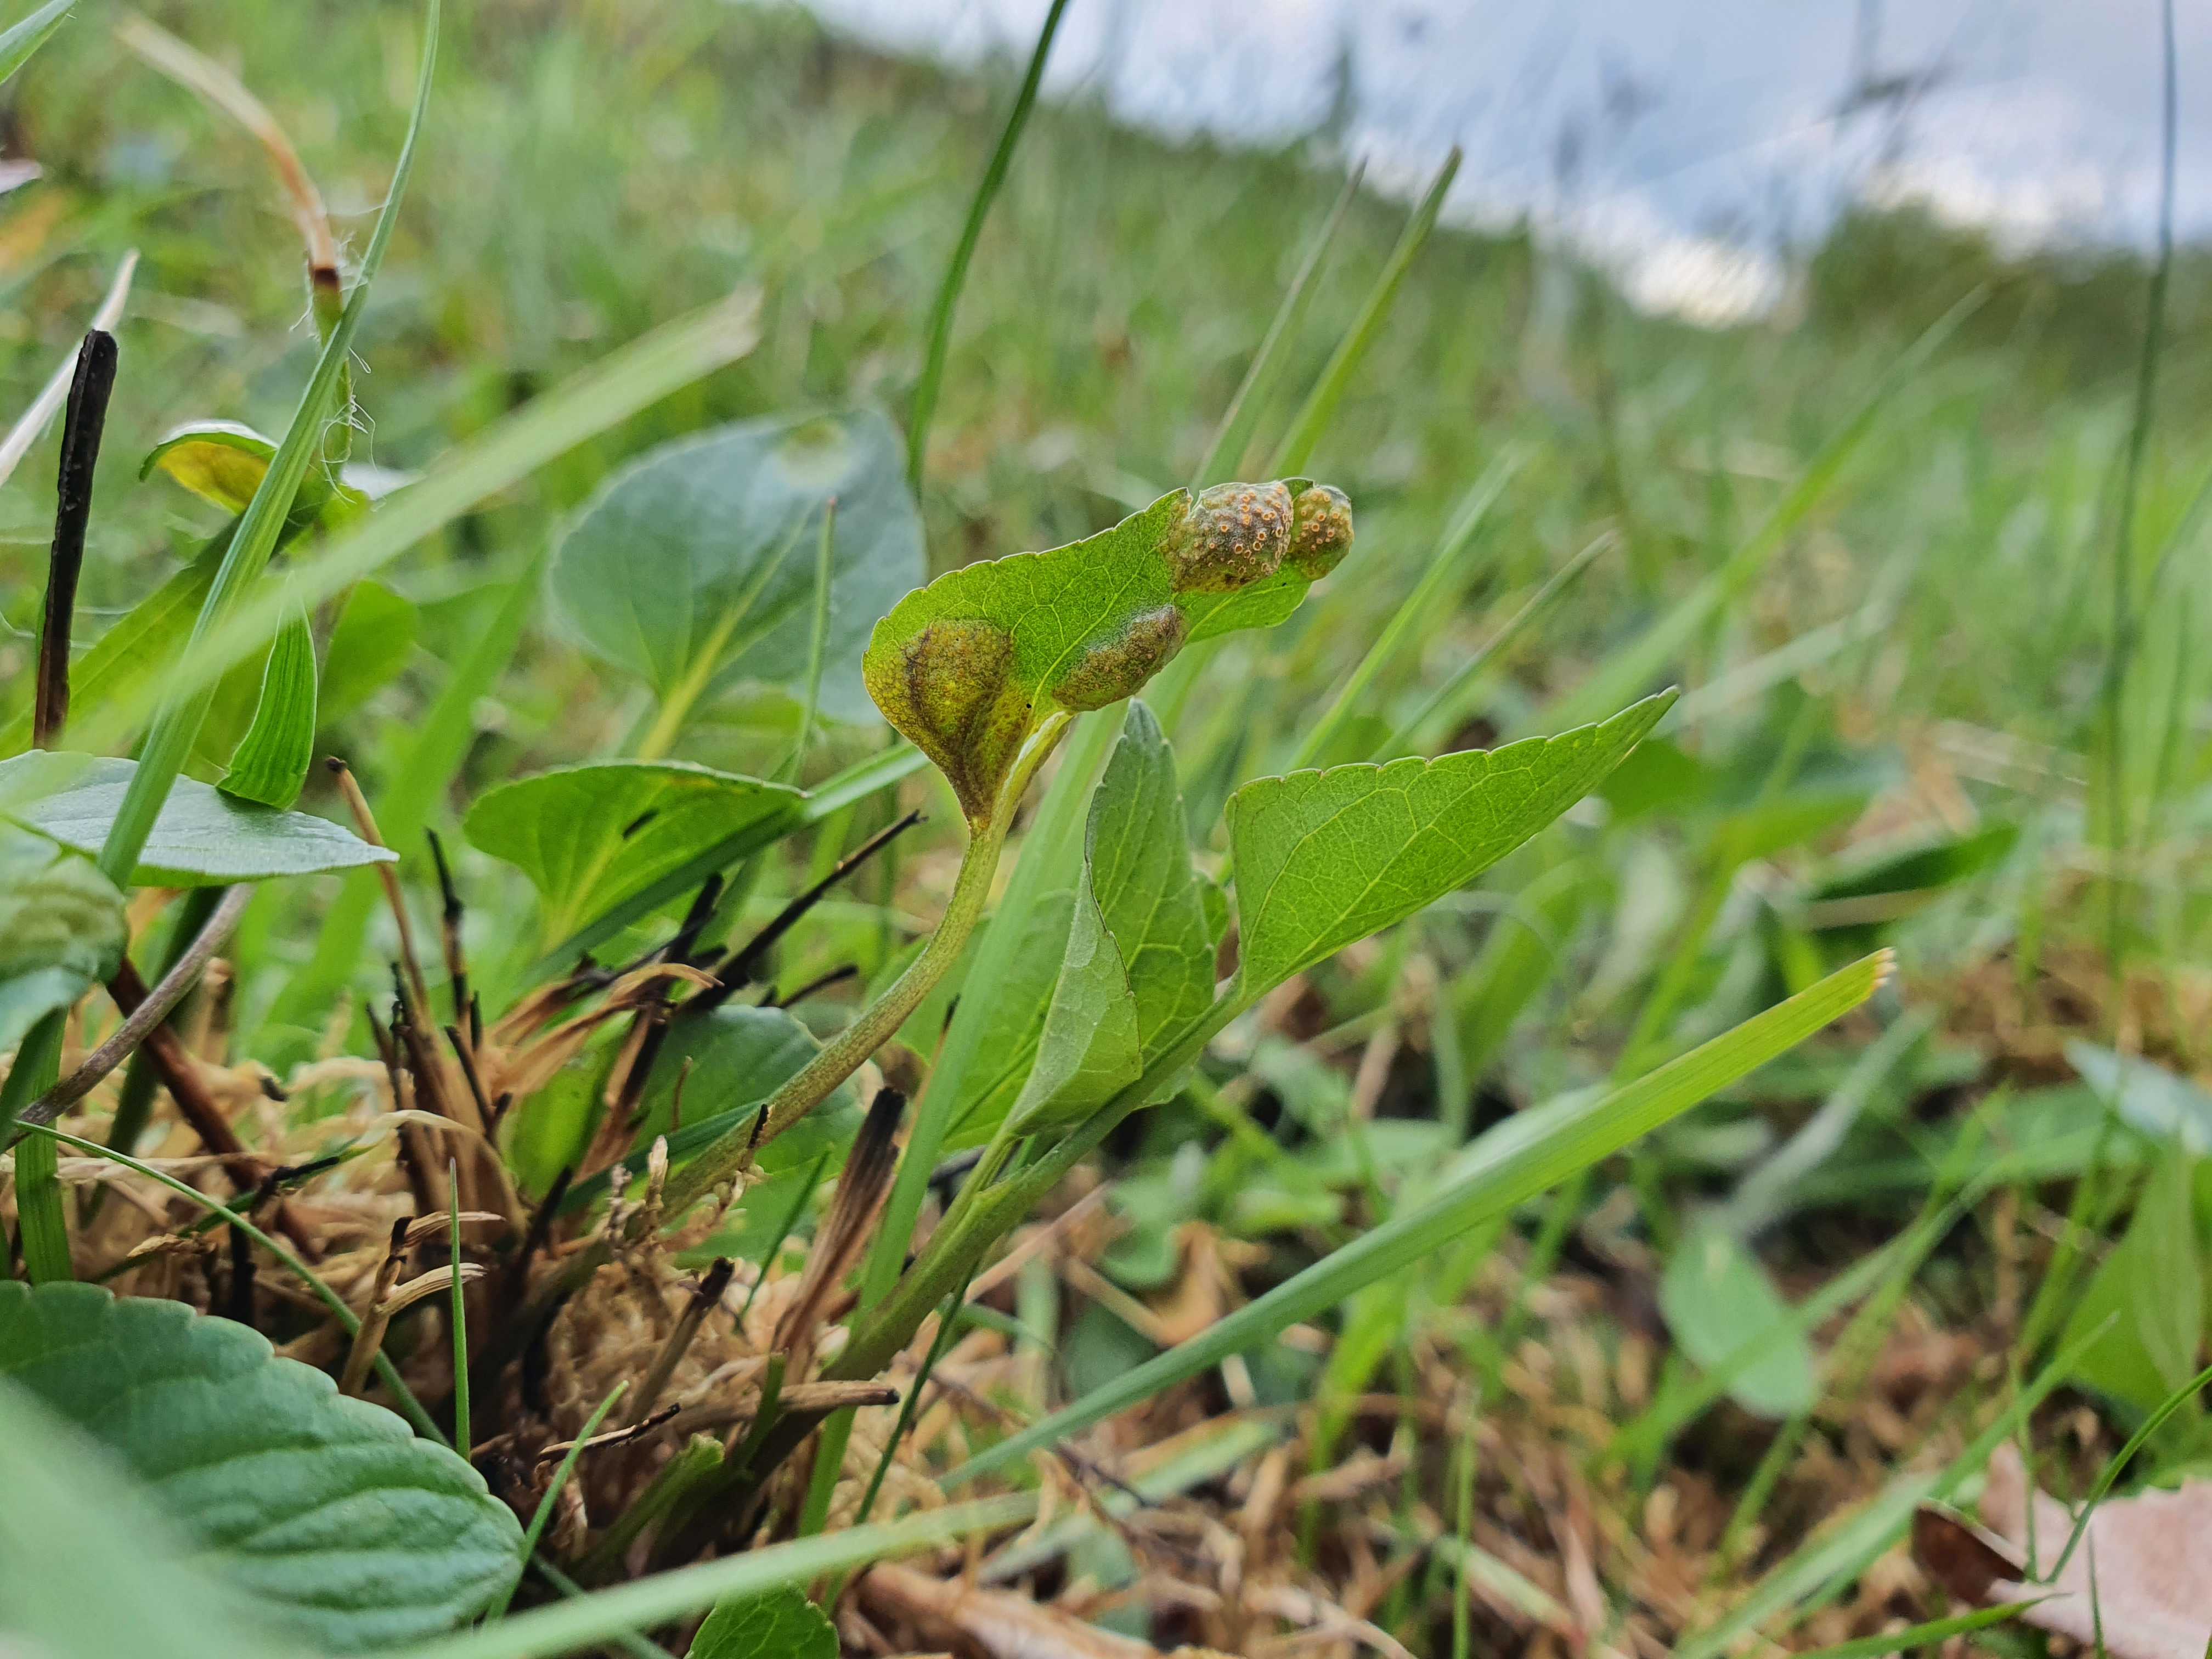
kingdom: Fungi
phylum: Basidiomycota
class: Pucciniomycetes
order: Pucciniales
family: Pucciniaceae
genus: Puccinia
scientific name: Puccinia violae
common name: viol-tvecellerust
